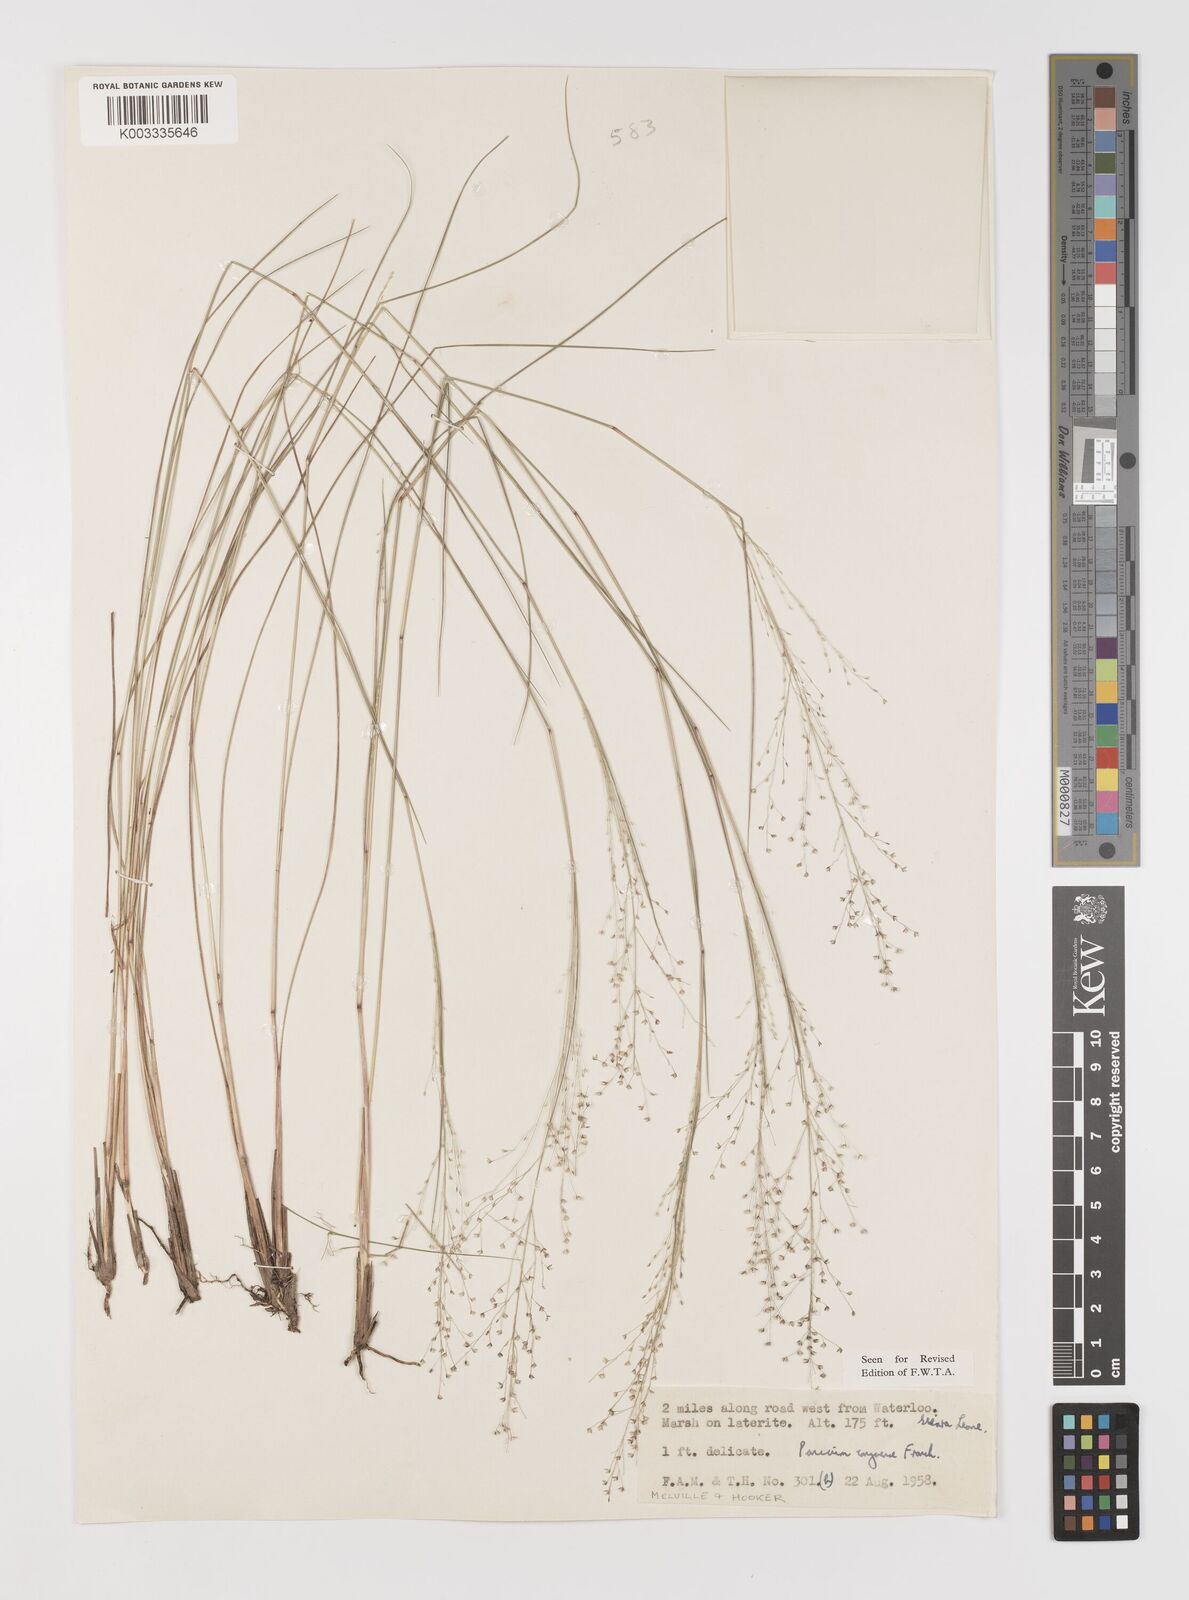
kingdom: Plantae
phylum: Tracheophyta
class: Liliopsida
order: Poales
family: Poaceae
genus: Panicum
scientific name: Panicum congoense
